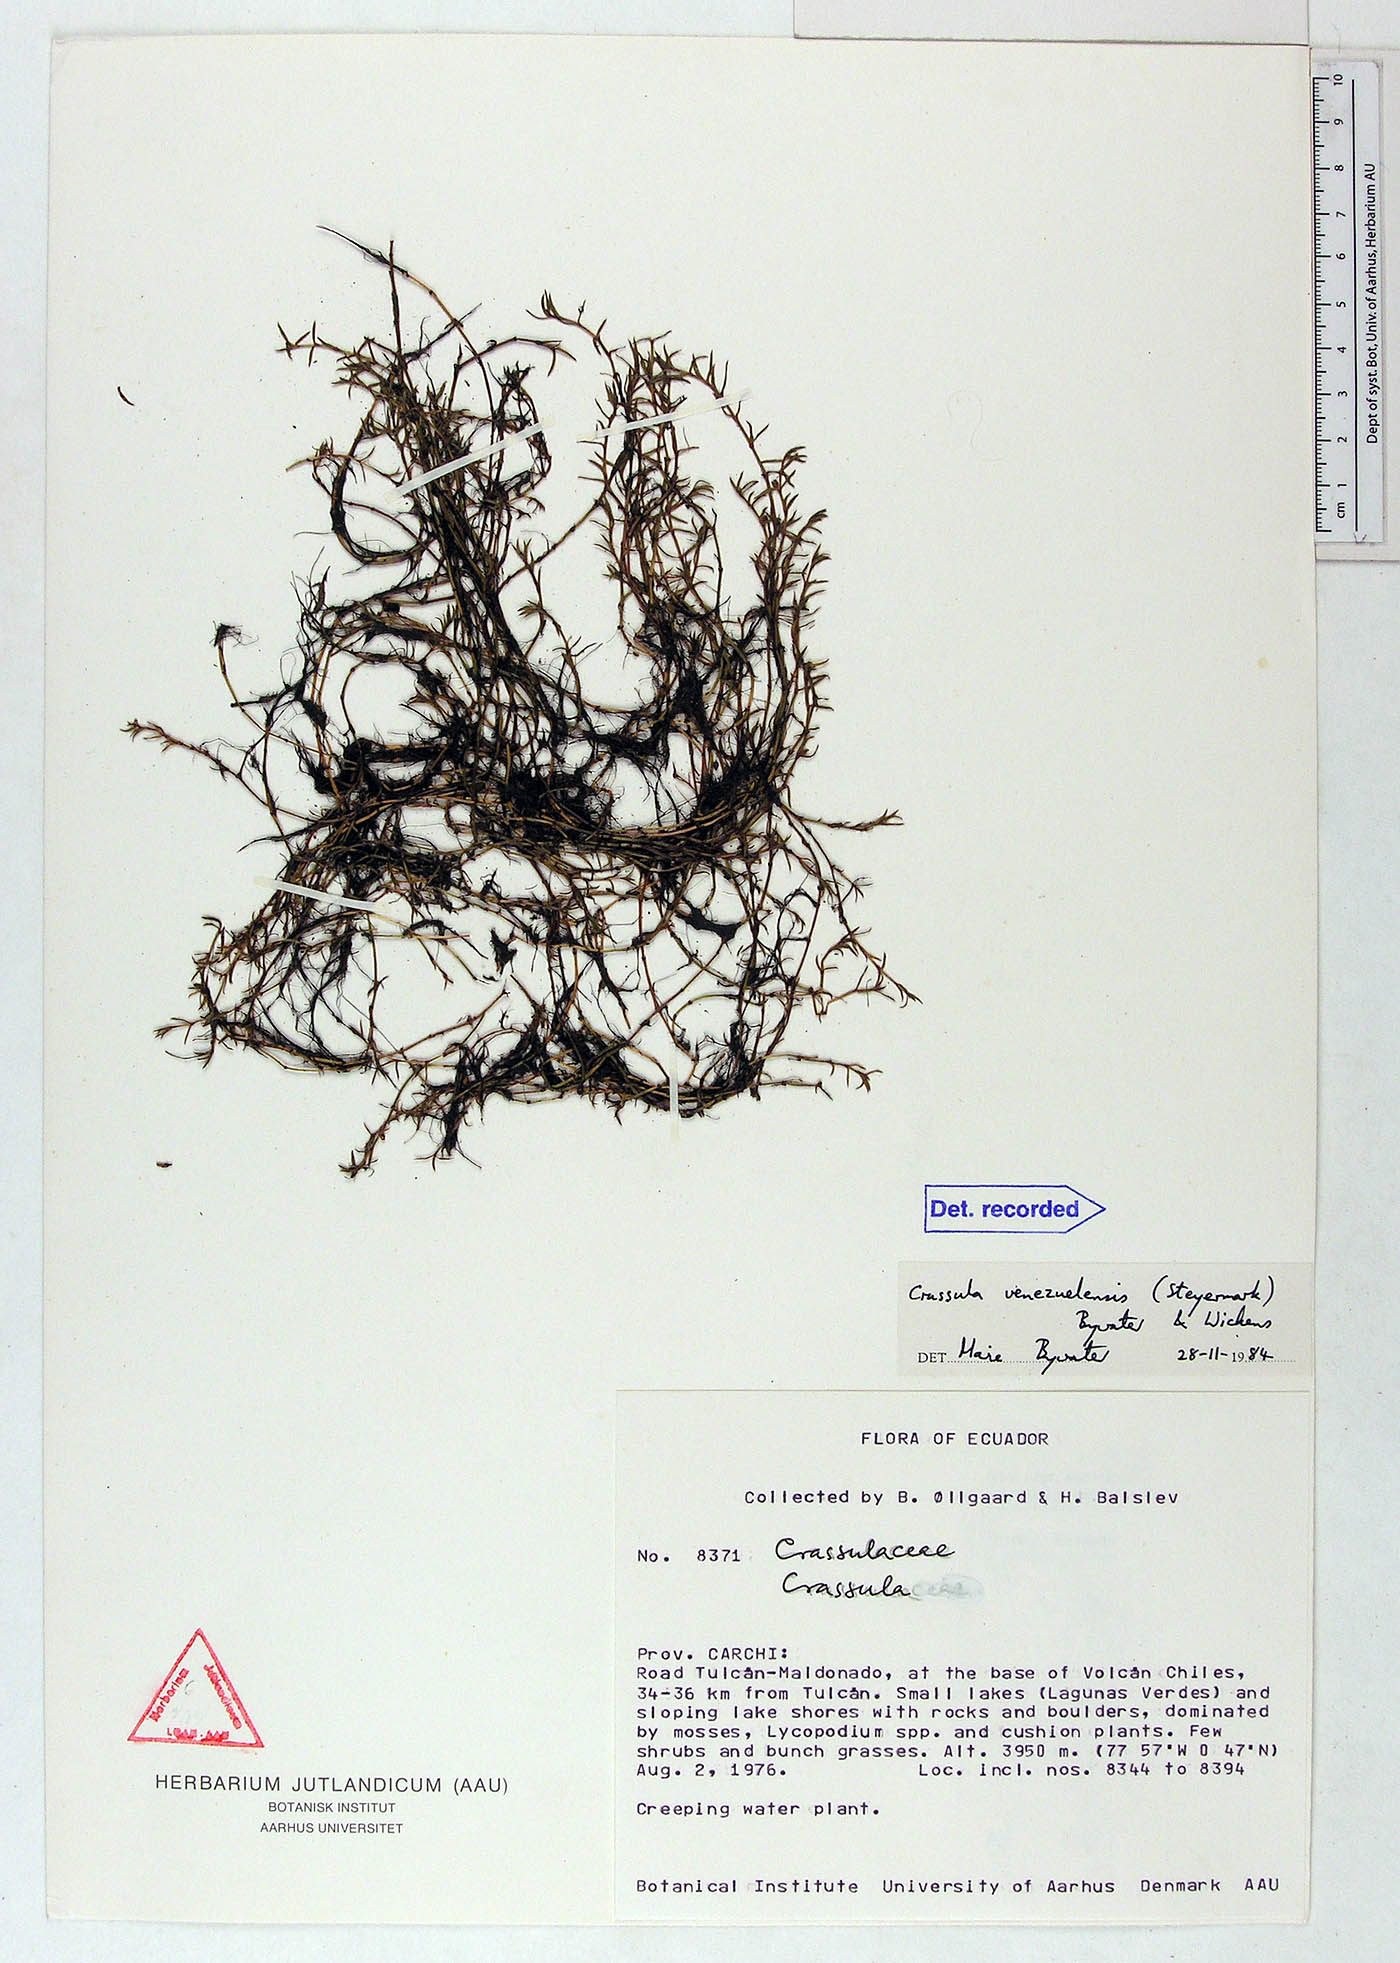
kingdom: Plantae
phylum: Tracheophyta
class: Magnoliopsida
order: Saxifragales
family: Crassulaceae
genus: Crassula
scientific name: Crassula venezuelensis
